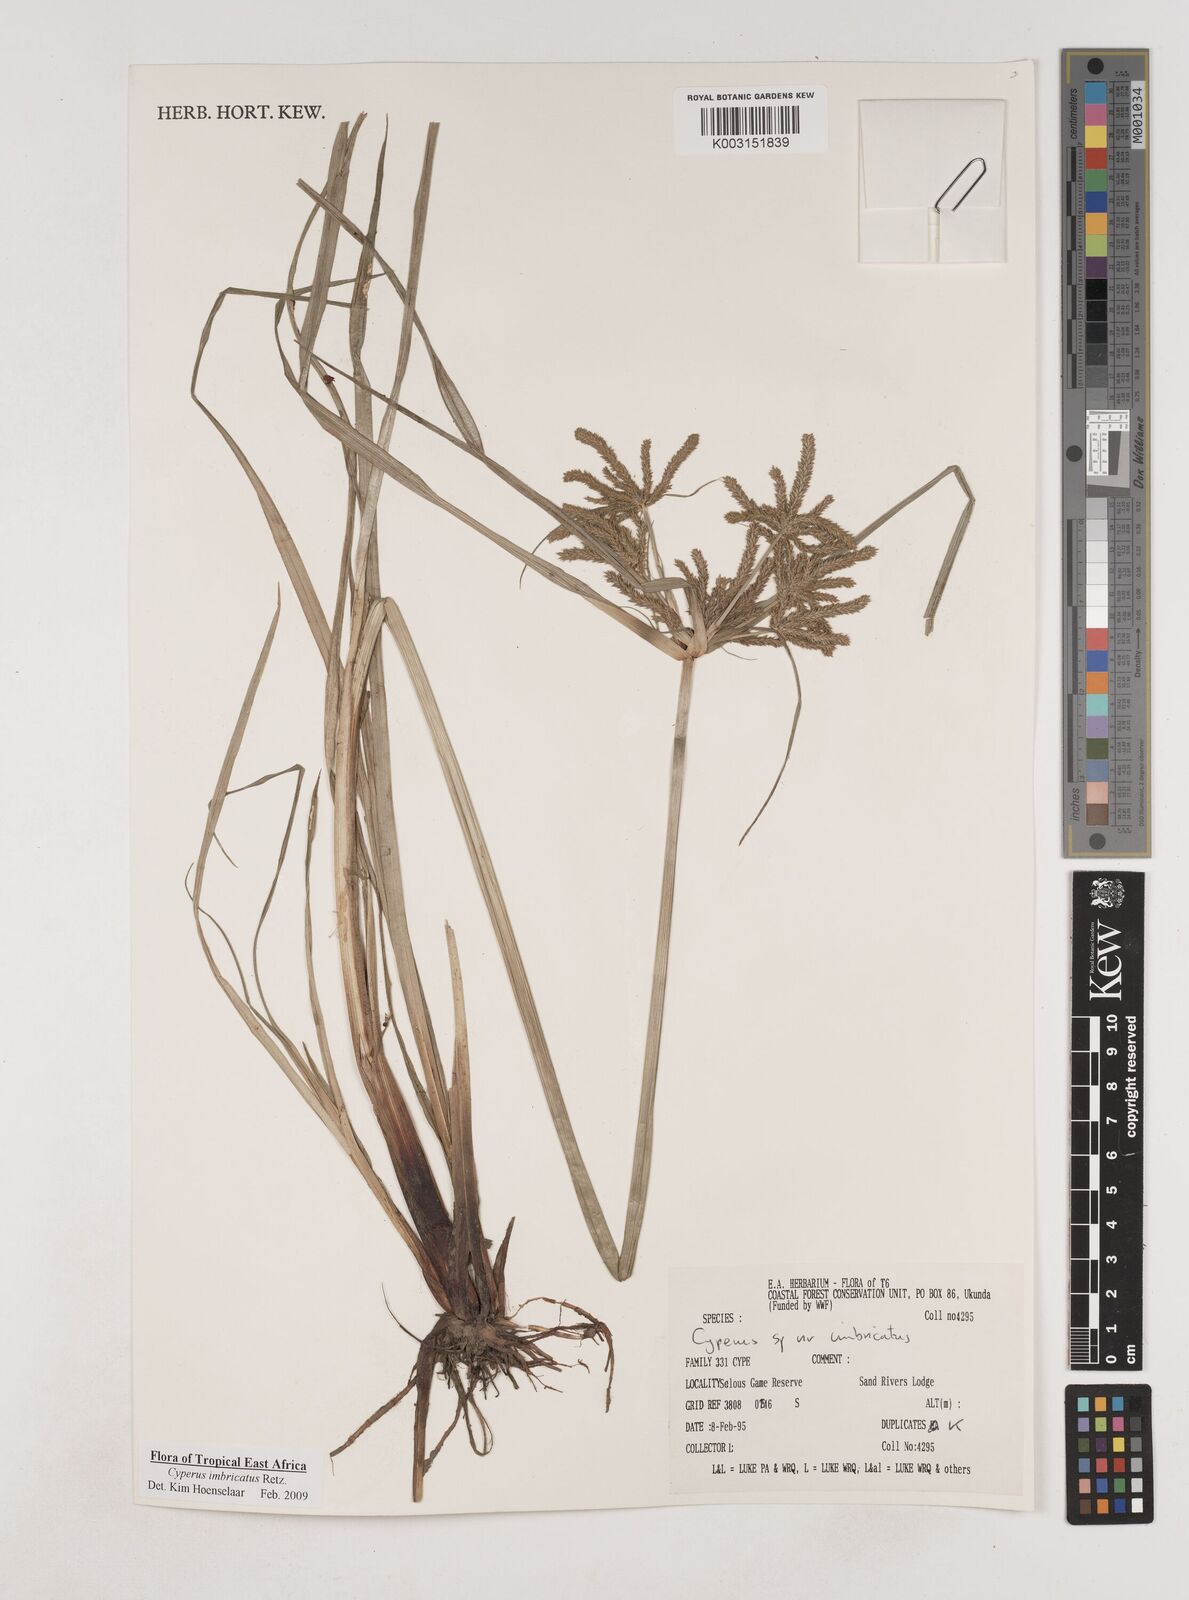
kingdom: Plantae
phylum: Tracheophyta
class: Liliopsida
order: Poales
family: Cyperaceae
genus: Cyperus
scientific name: Cyperus imbricatus
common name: Shingle flatsedge
